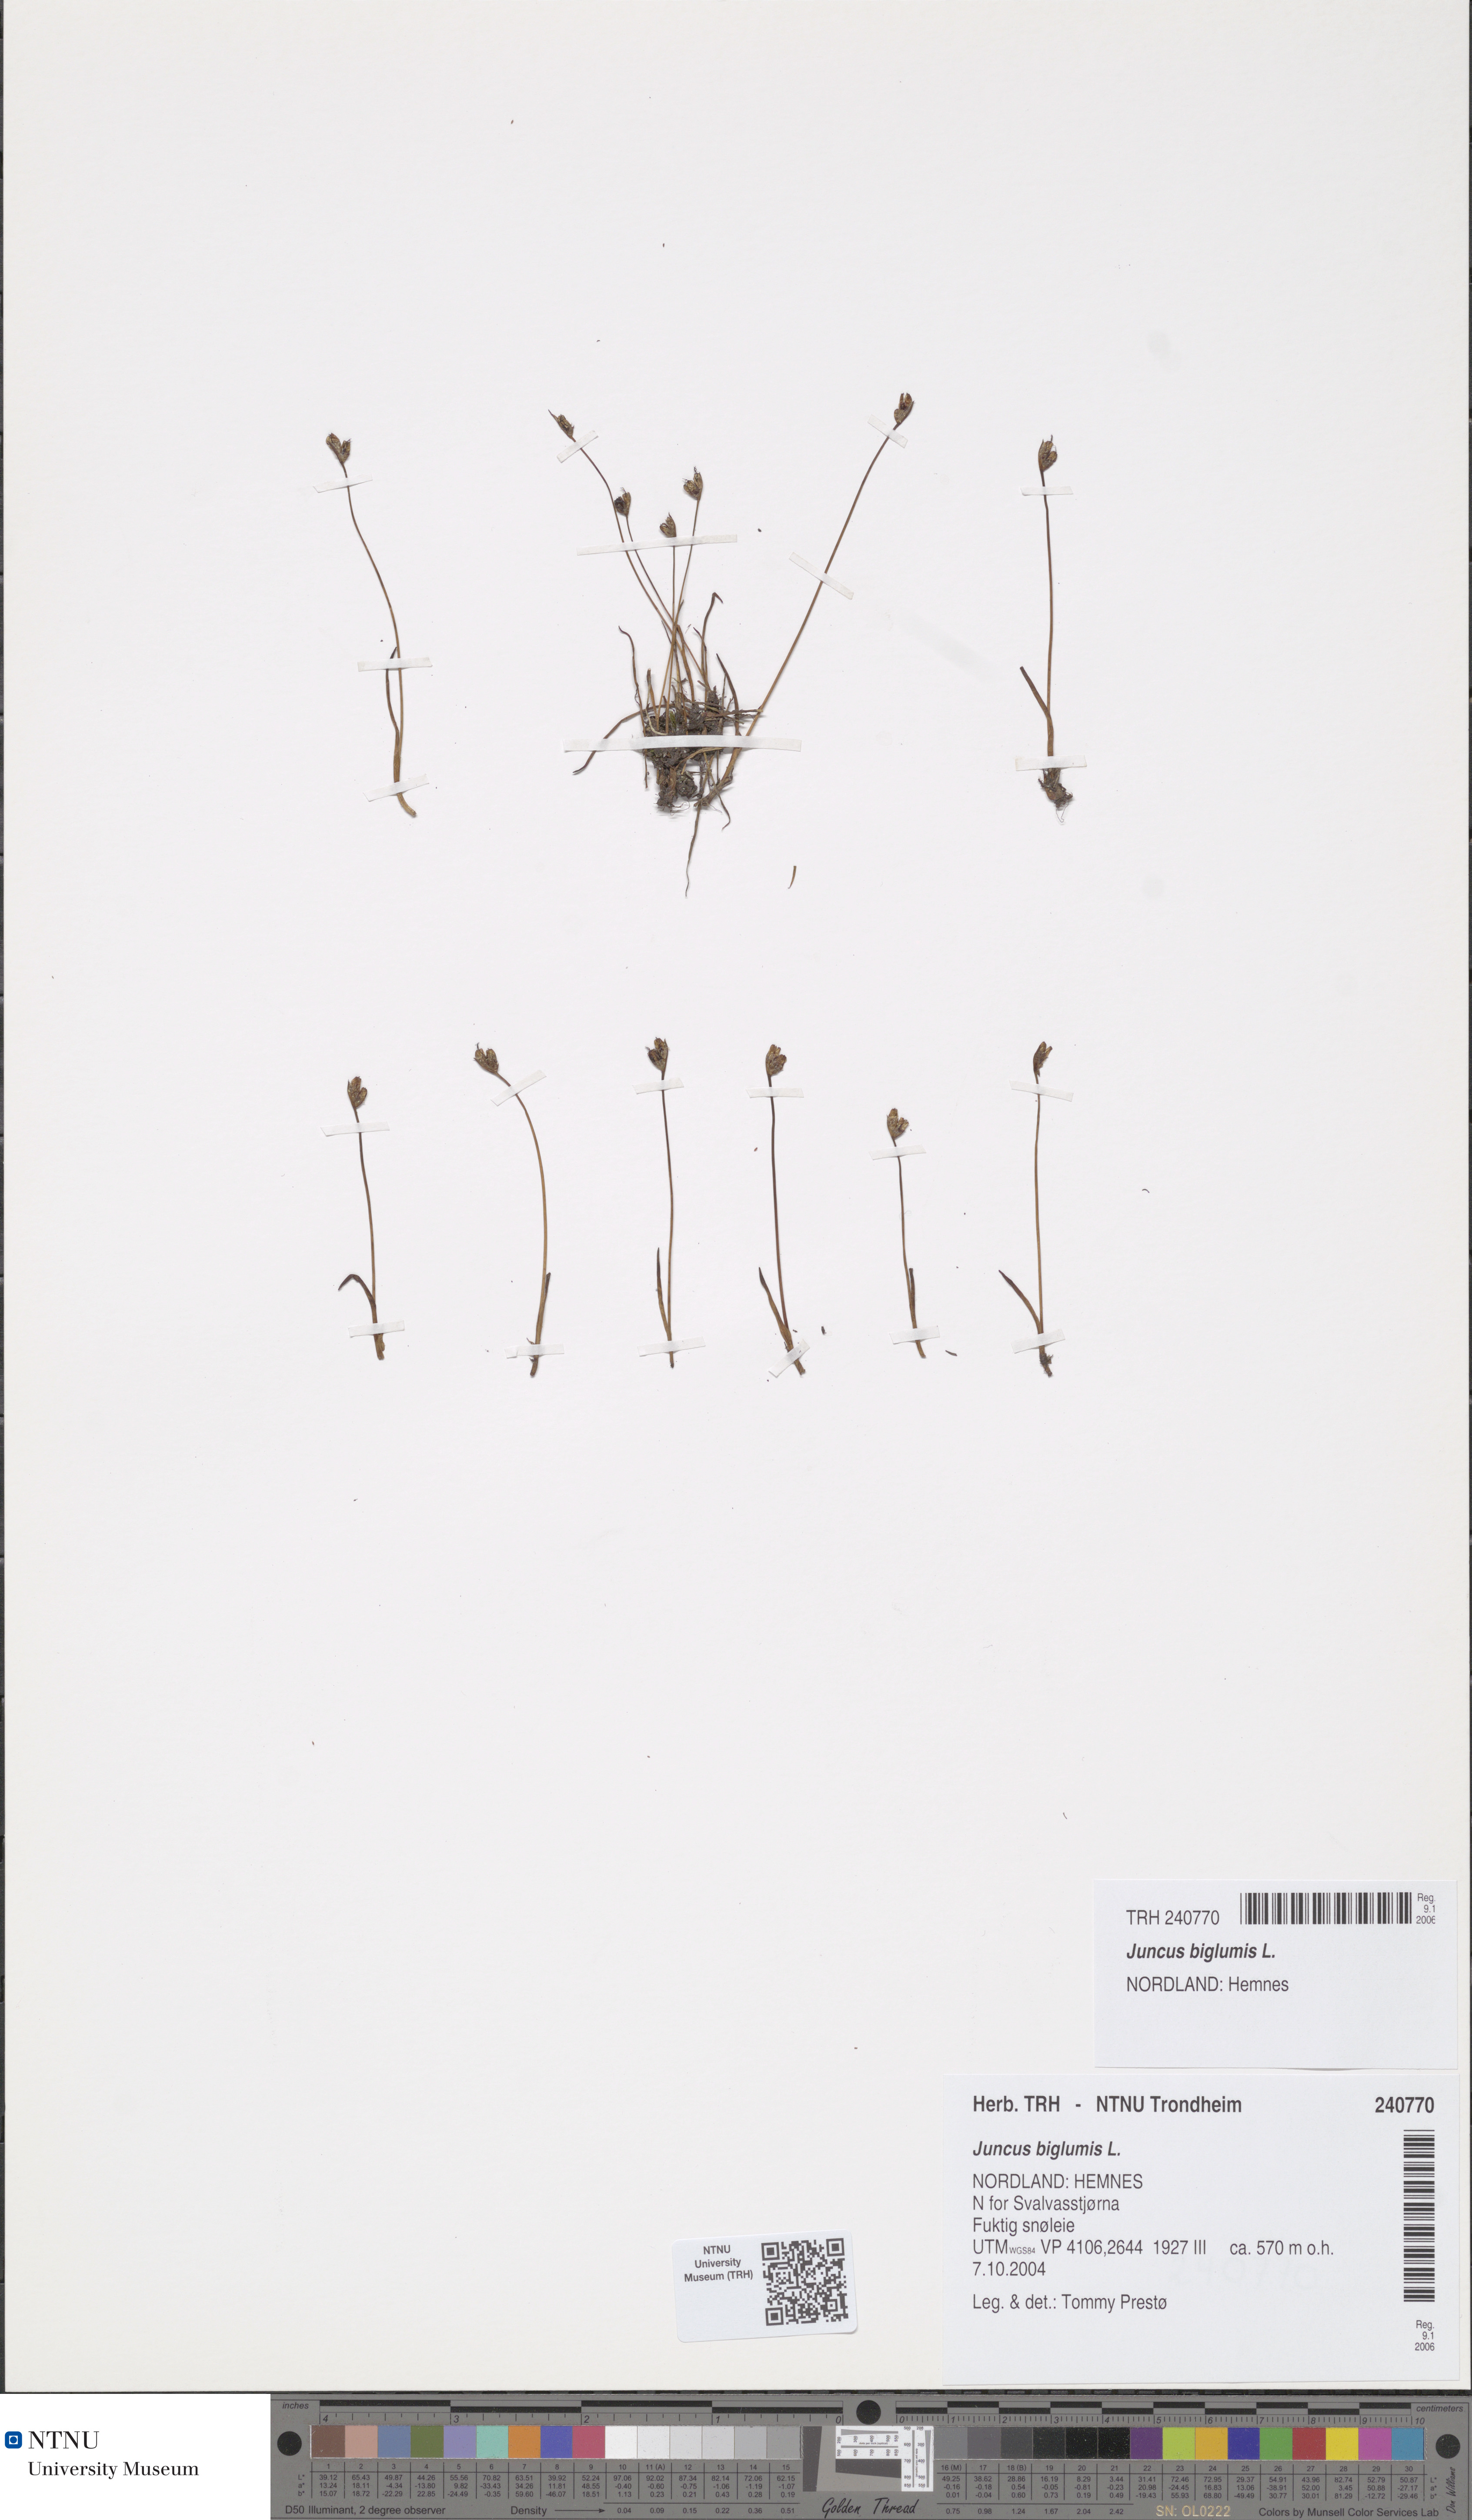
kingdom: Plantae
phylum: Tracheophyta
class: Liliopsida
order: Poales
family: Juncaceae
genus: Juncus
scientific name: Juncus biglumis
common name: Two-flowered rush
